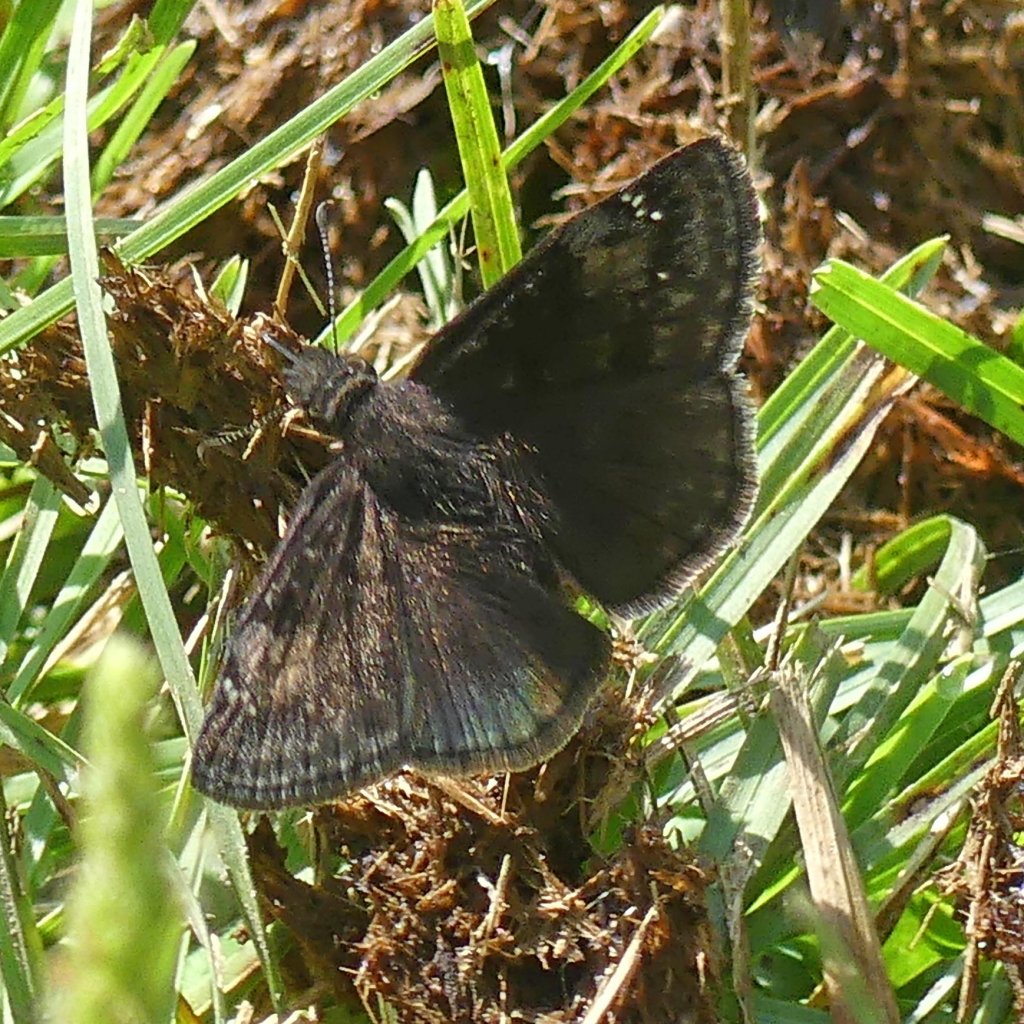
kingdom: Animalia
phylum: Arthropoda
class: Insecta
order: Lepidoptera
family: Hesperiidae
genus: Gesta
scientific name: Gesta
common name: Wild Indigo Duskywing
